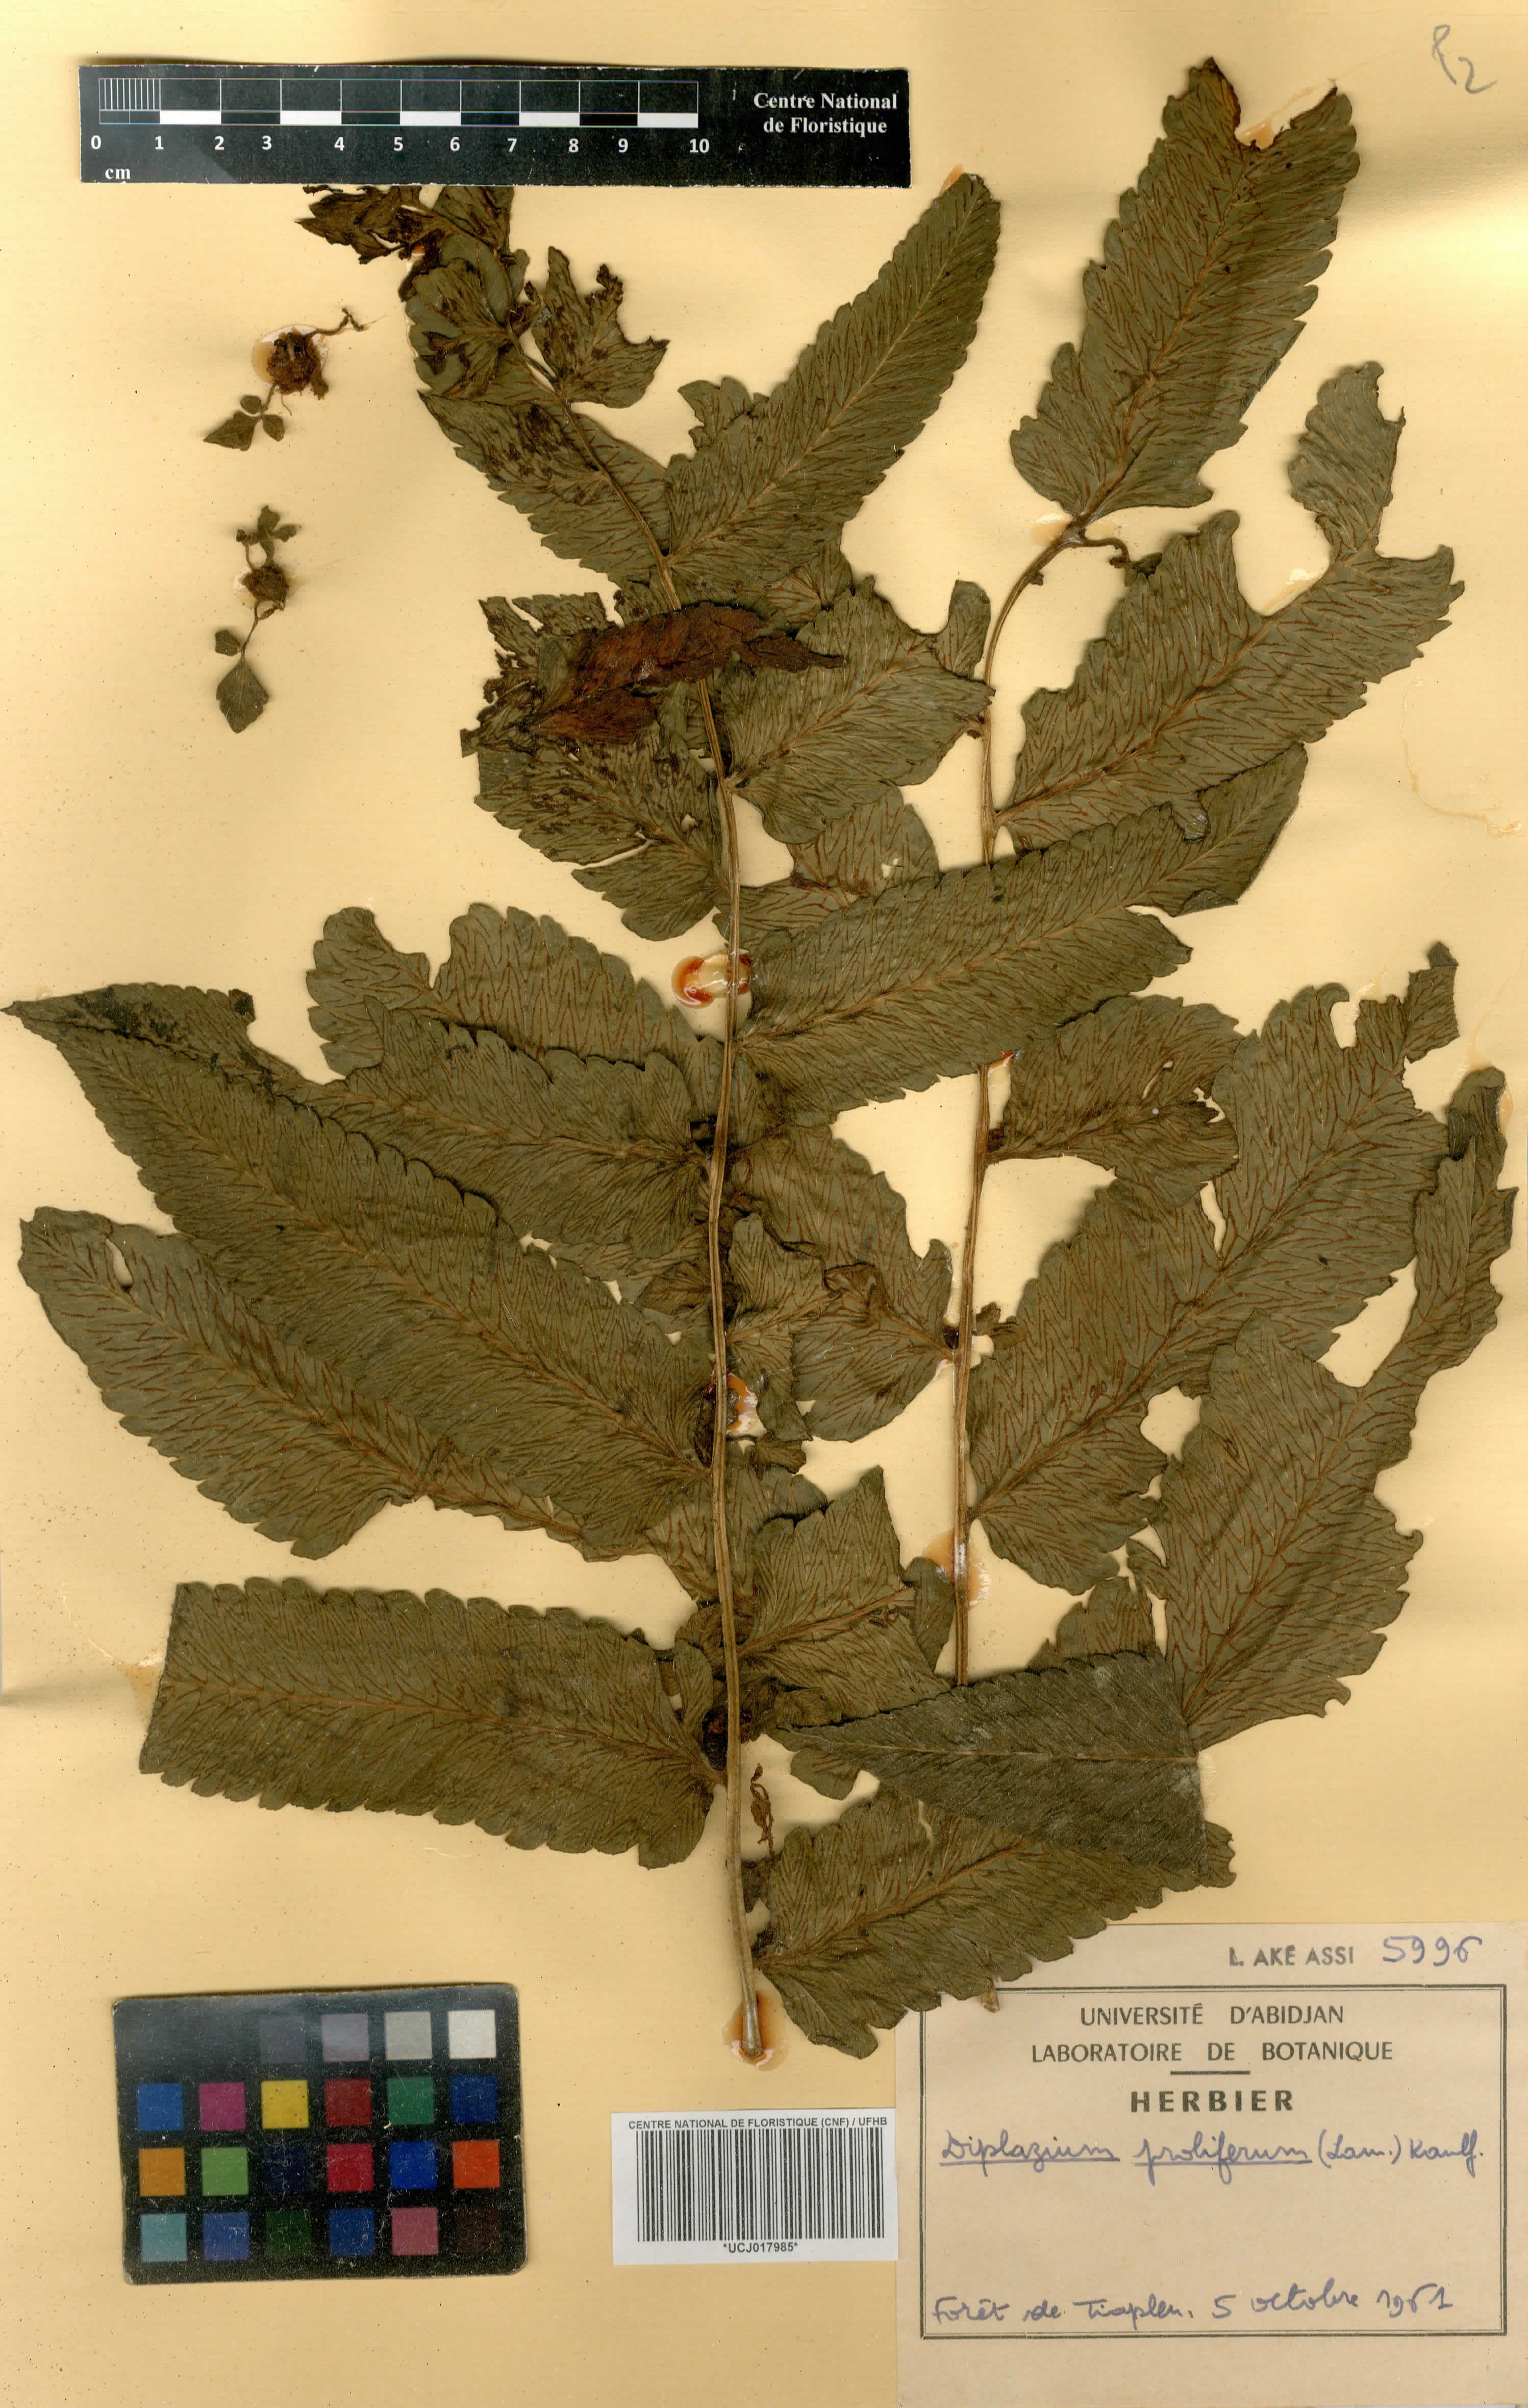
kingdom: Plantae
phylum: Tracheophyta
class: Polypodiopsida
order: Polypodiales
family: Athyriaceae
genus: Diplazium
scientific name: Diplazium proliferum
